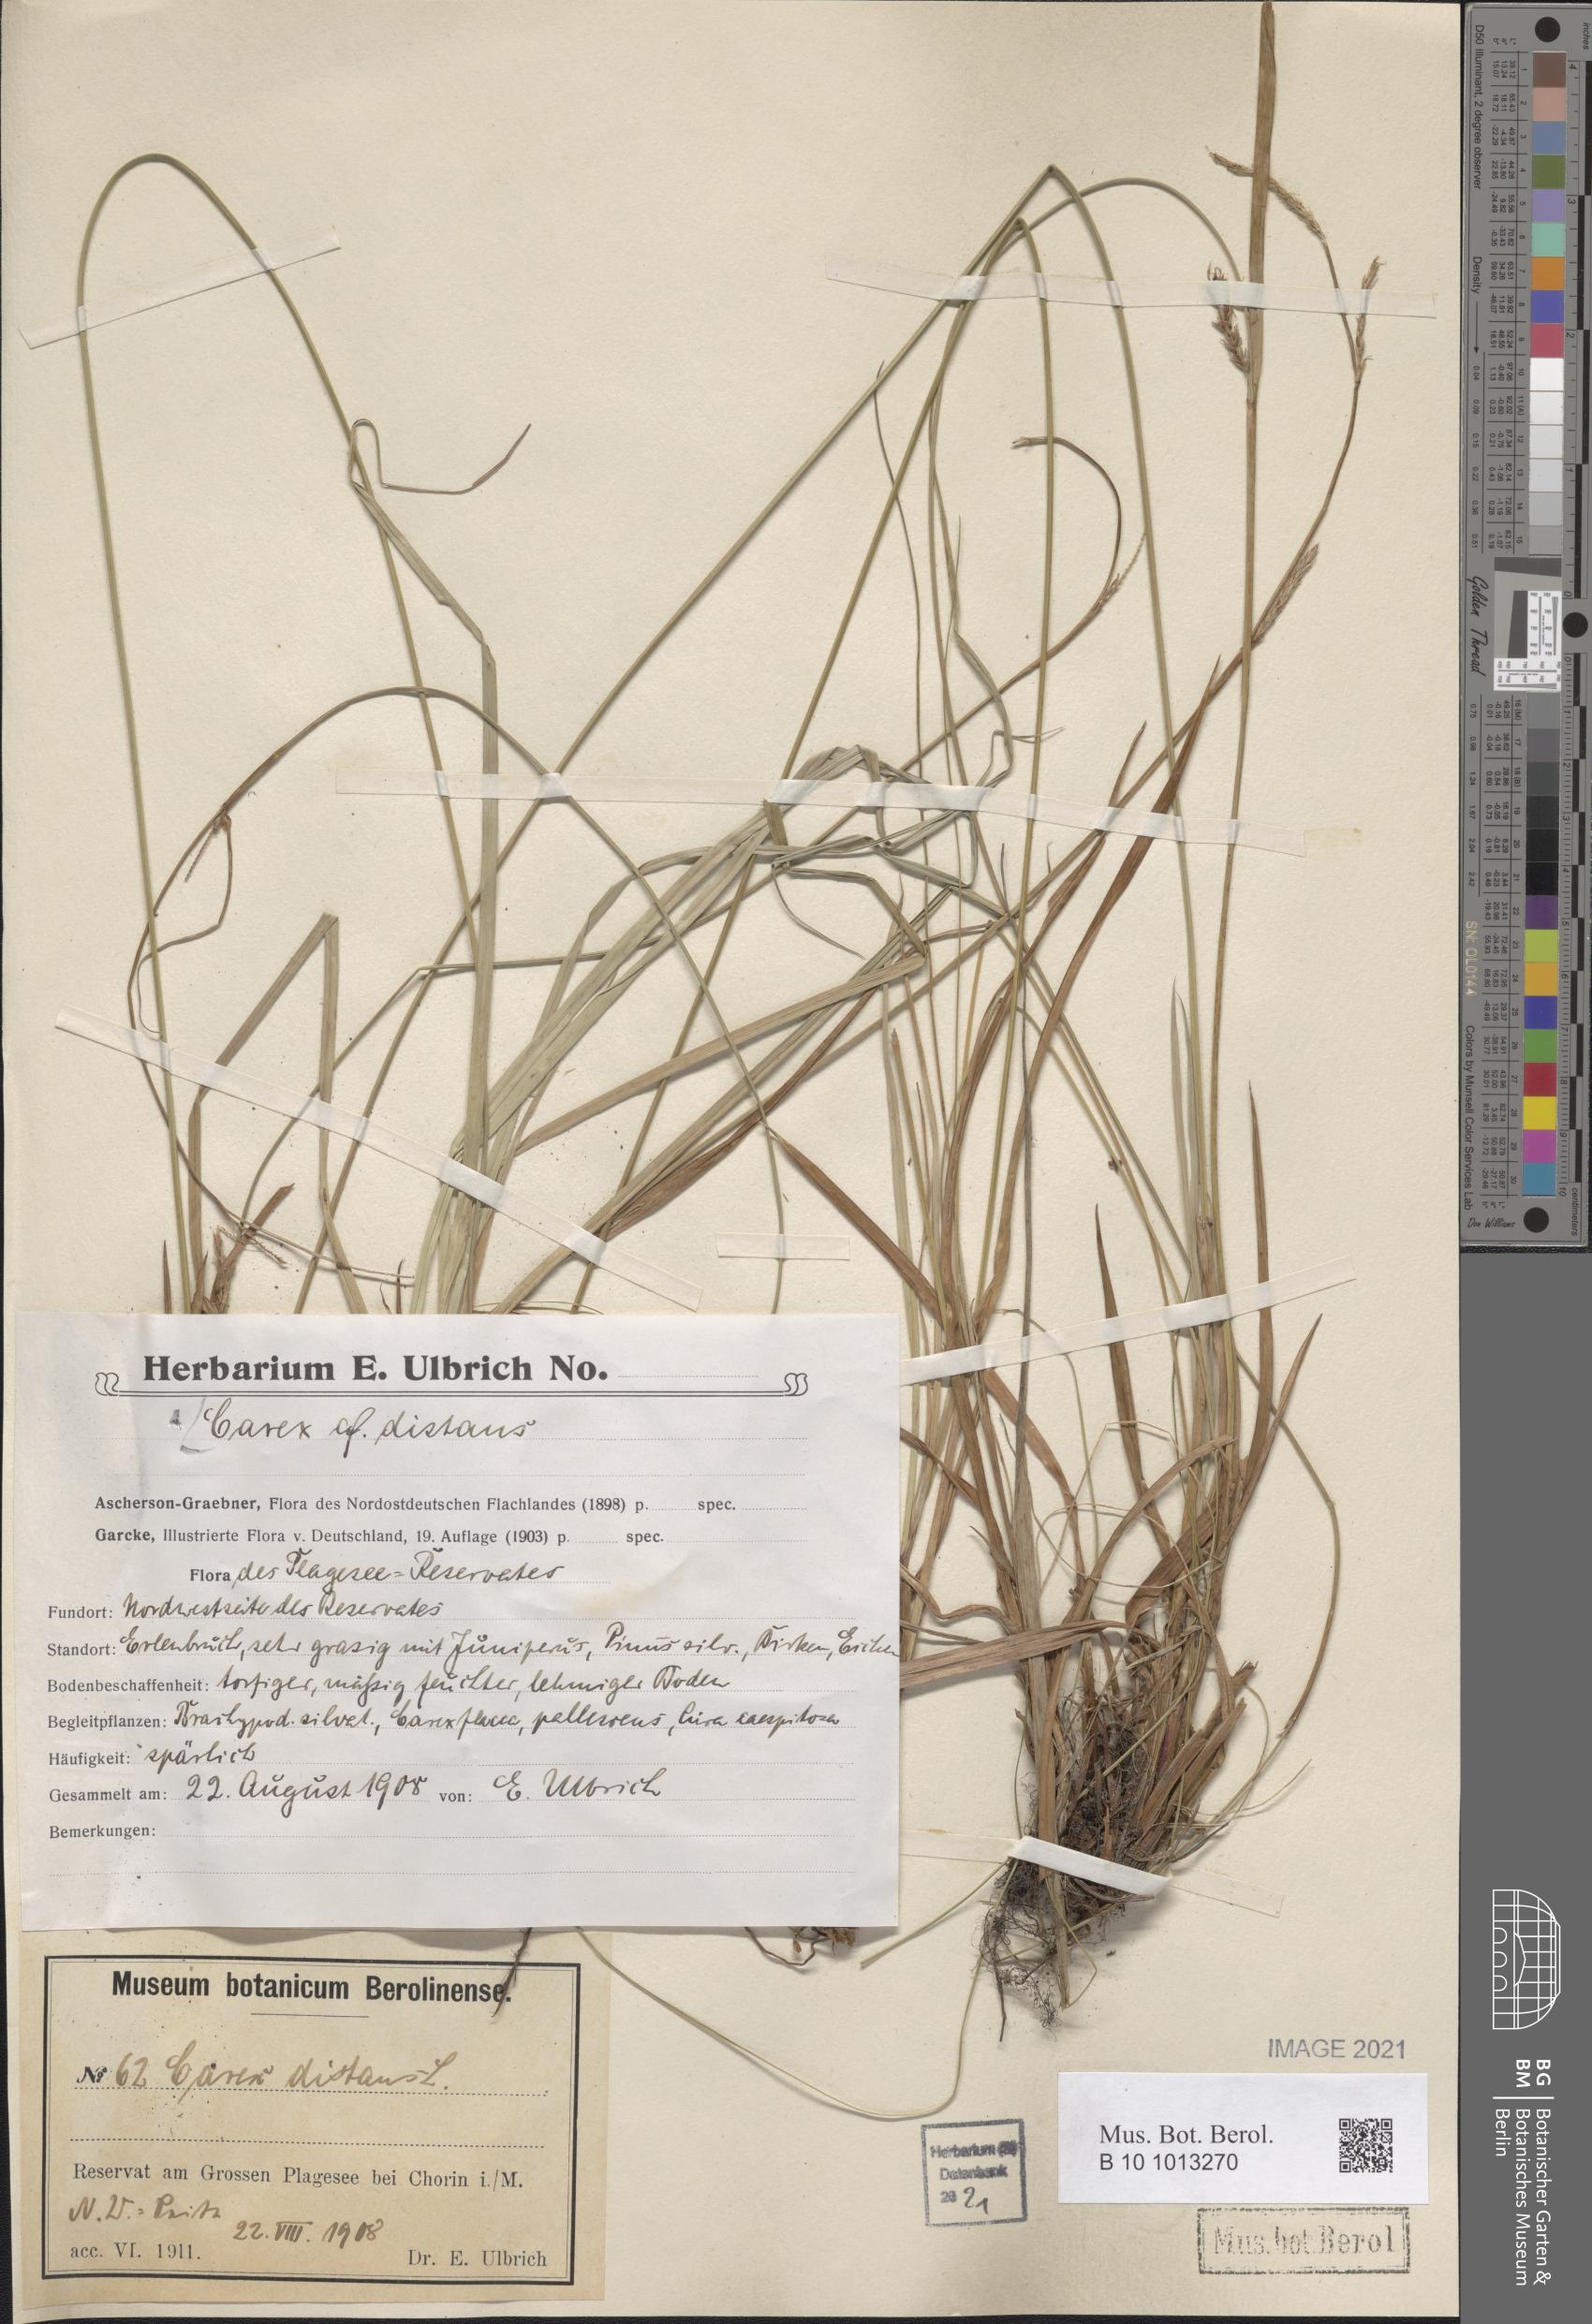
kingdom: Plantae
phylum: Tracheophyta
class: Liliopsida
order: Poales
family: Cyperaceae
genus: Carex
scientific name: Carex distans
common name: Distant sedge
